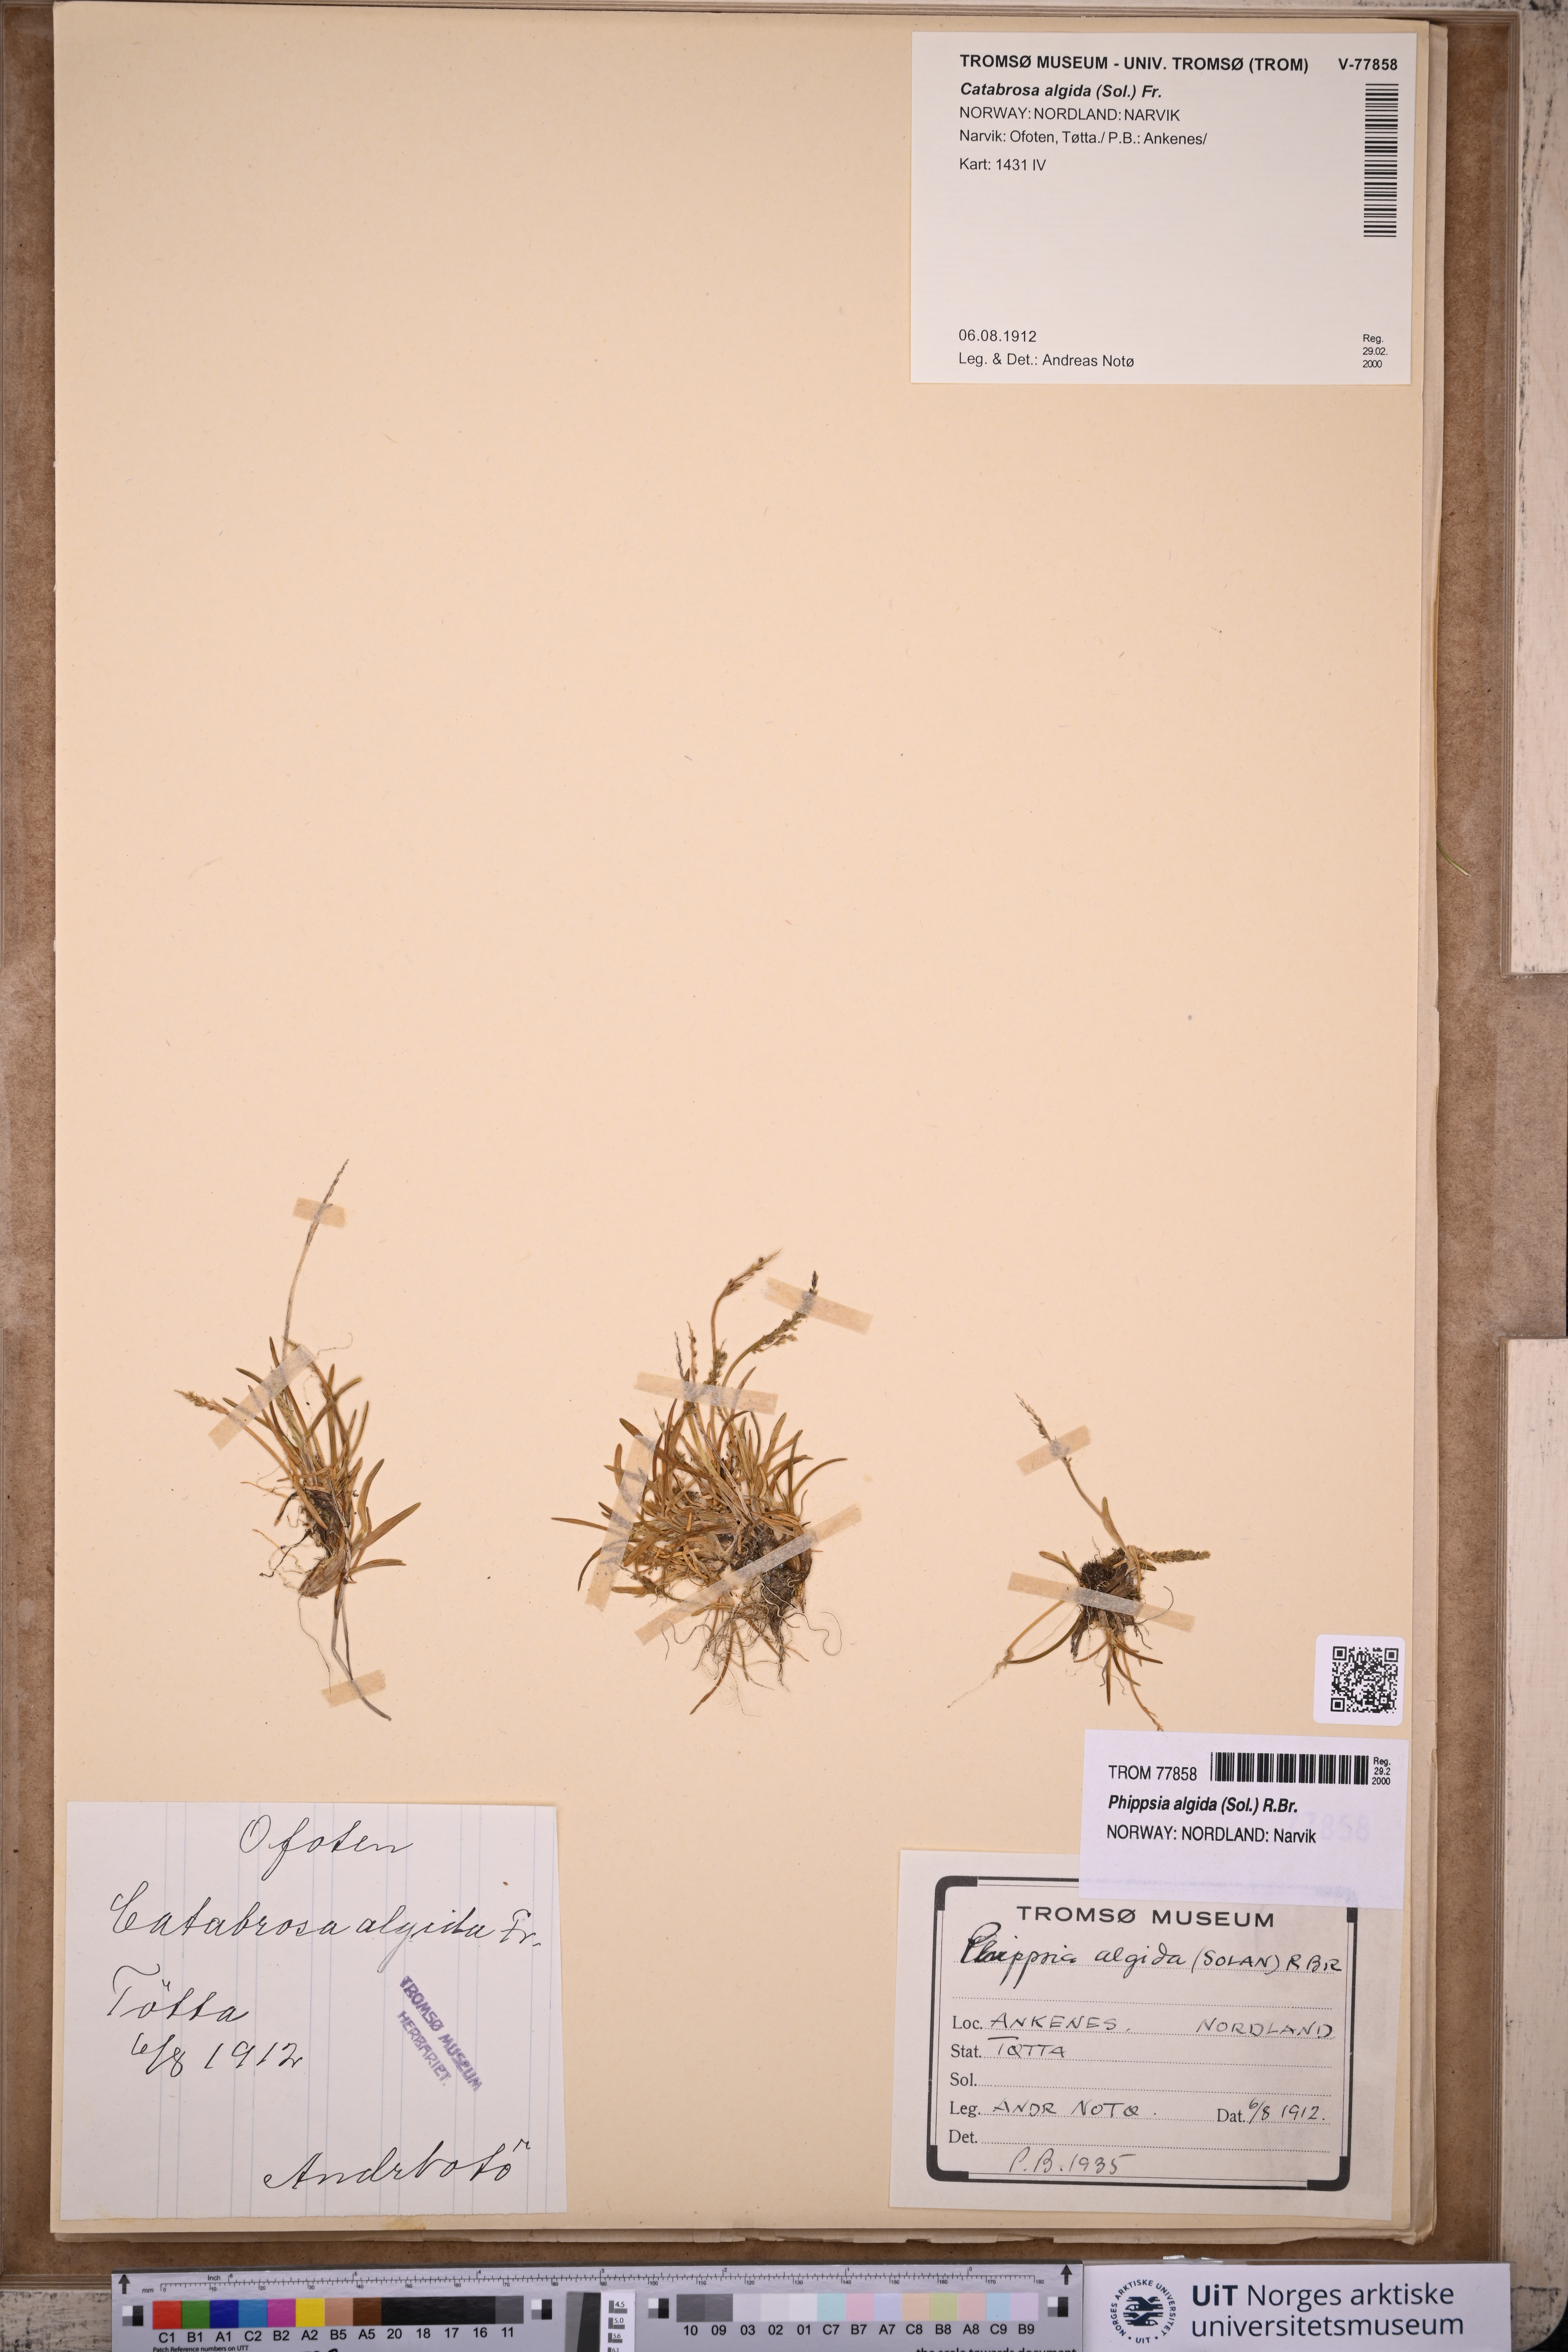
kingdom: Plantae
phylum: Tracheophyta
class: Liliopsida
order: Poales
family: Poaceae
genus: Phippsia
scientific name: Phippsia algida
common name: Ice grass
